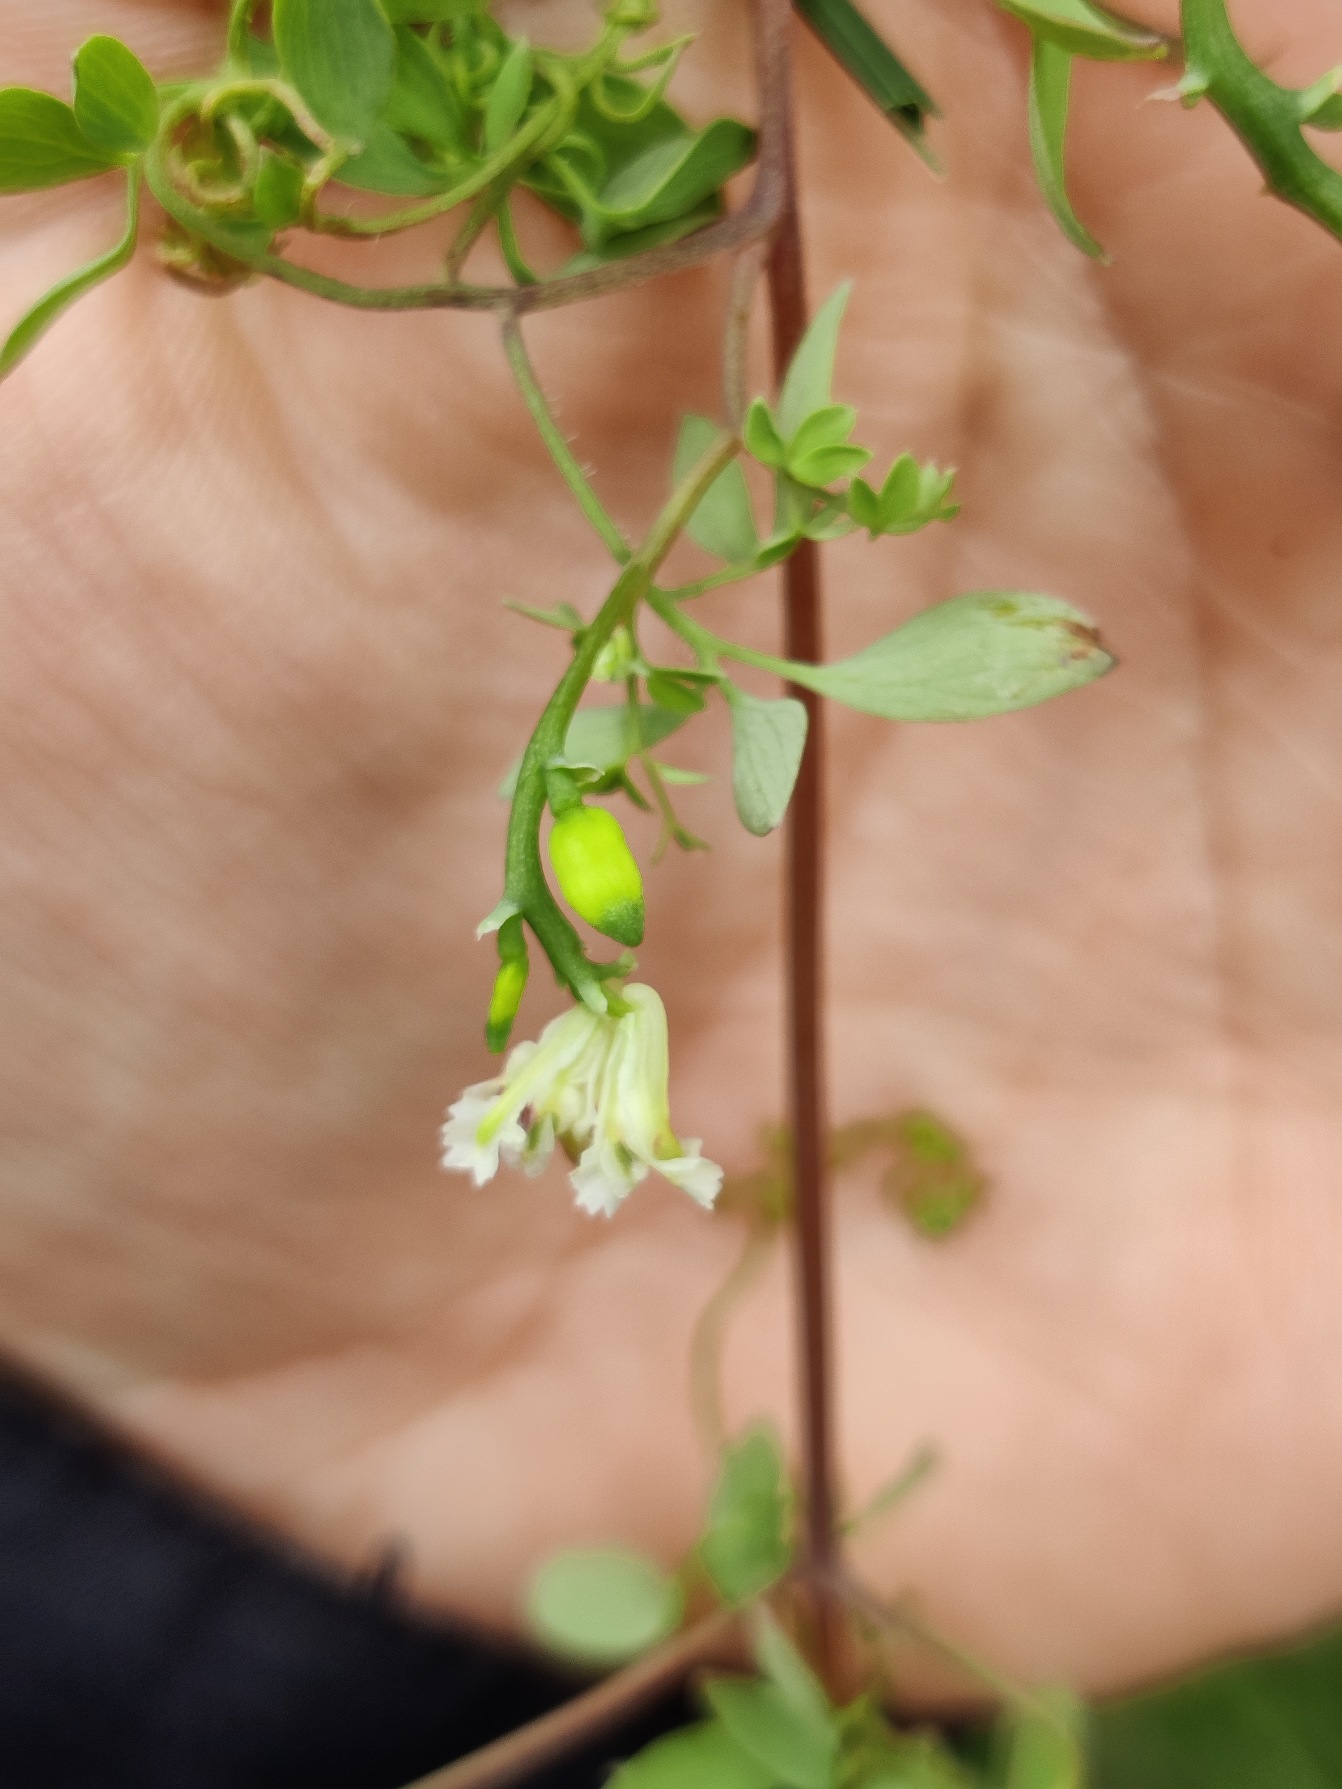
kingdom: Plantae
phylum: Tracheophyta
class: Magnoliopsida
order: Ranunculales
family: Papaveraceae
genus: Ceratocapnos
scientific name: Ceratocapnos claviculata
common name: Klatrende lærkespore
